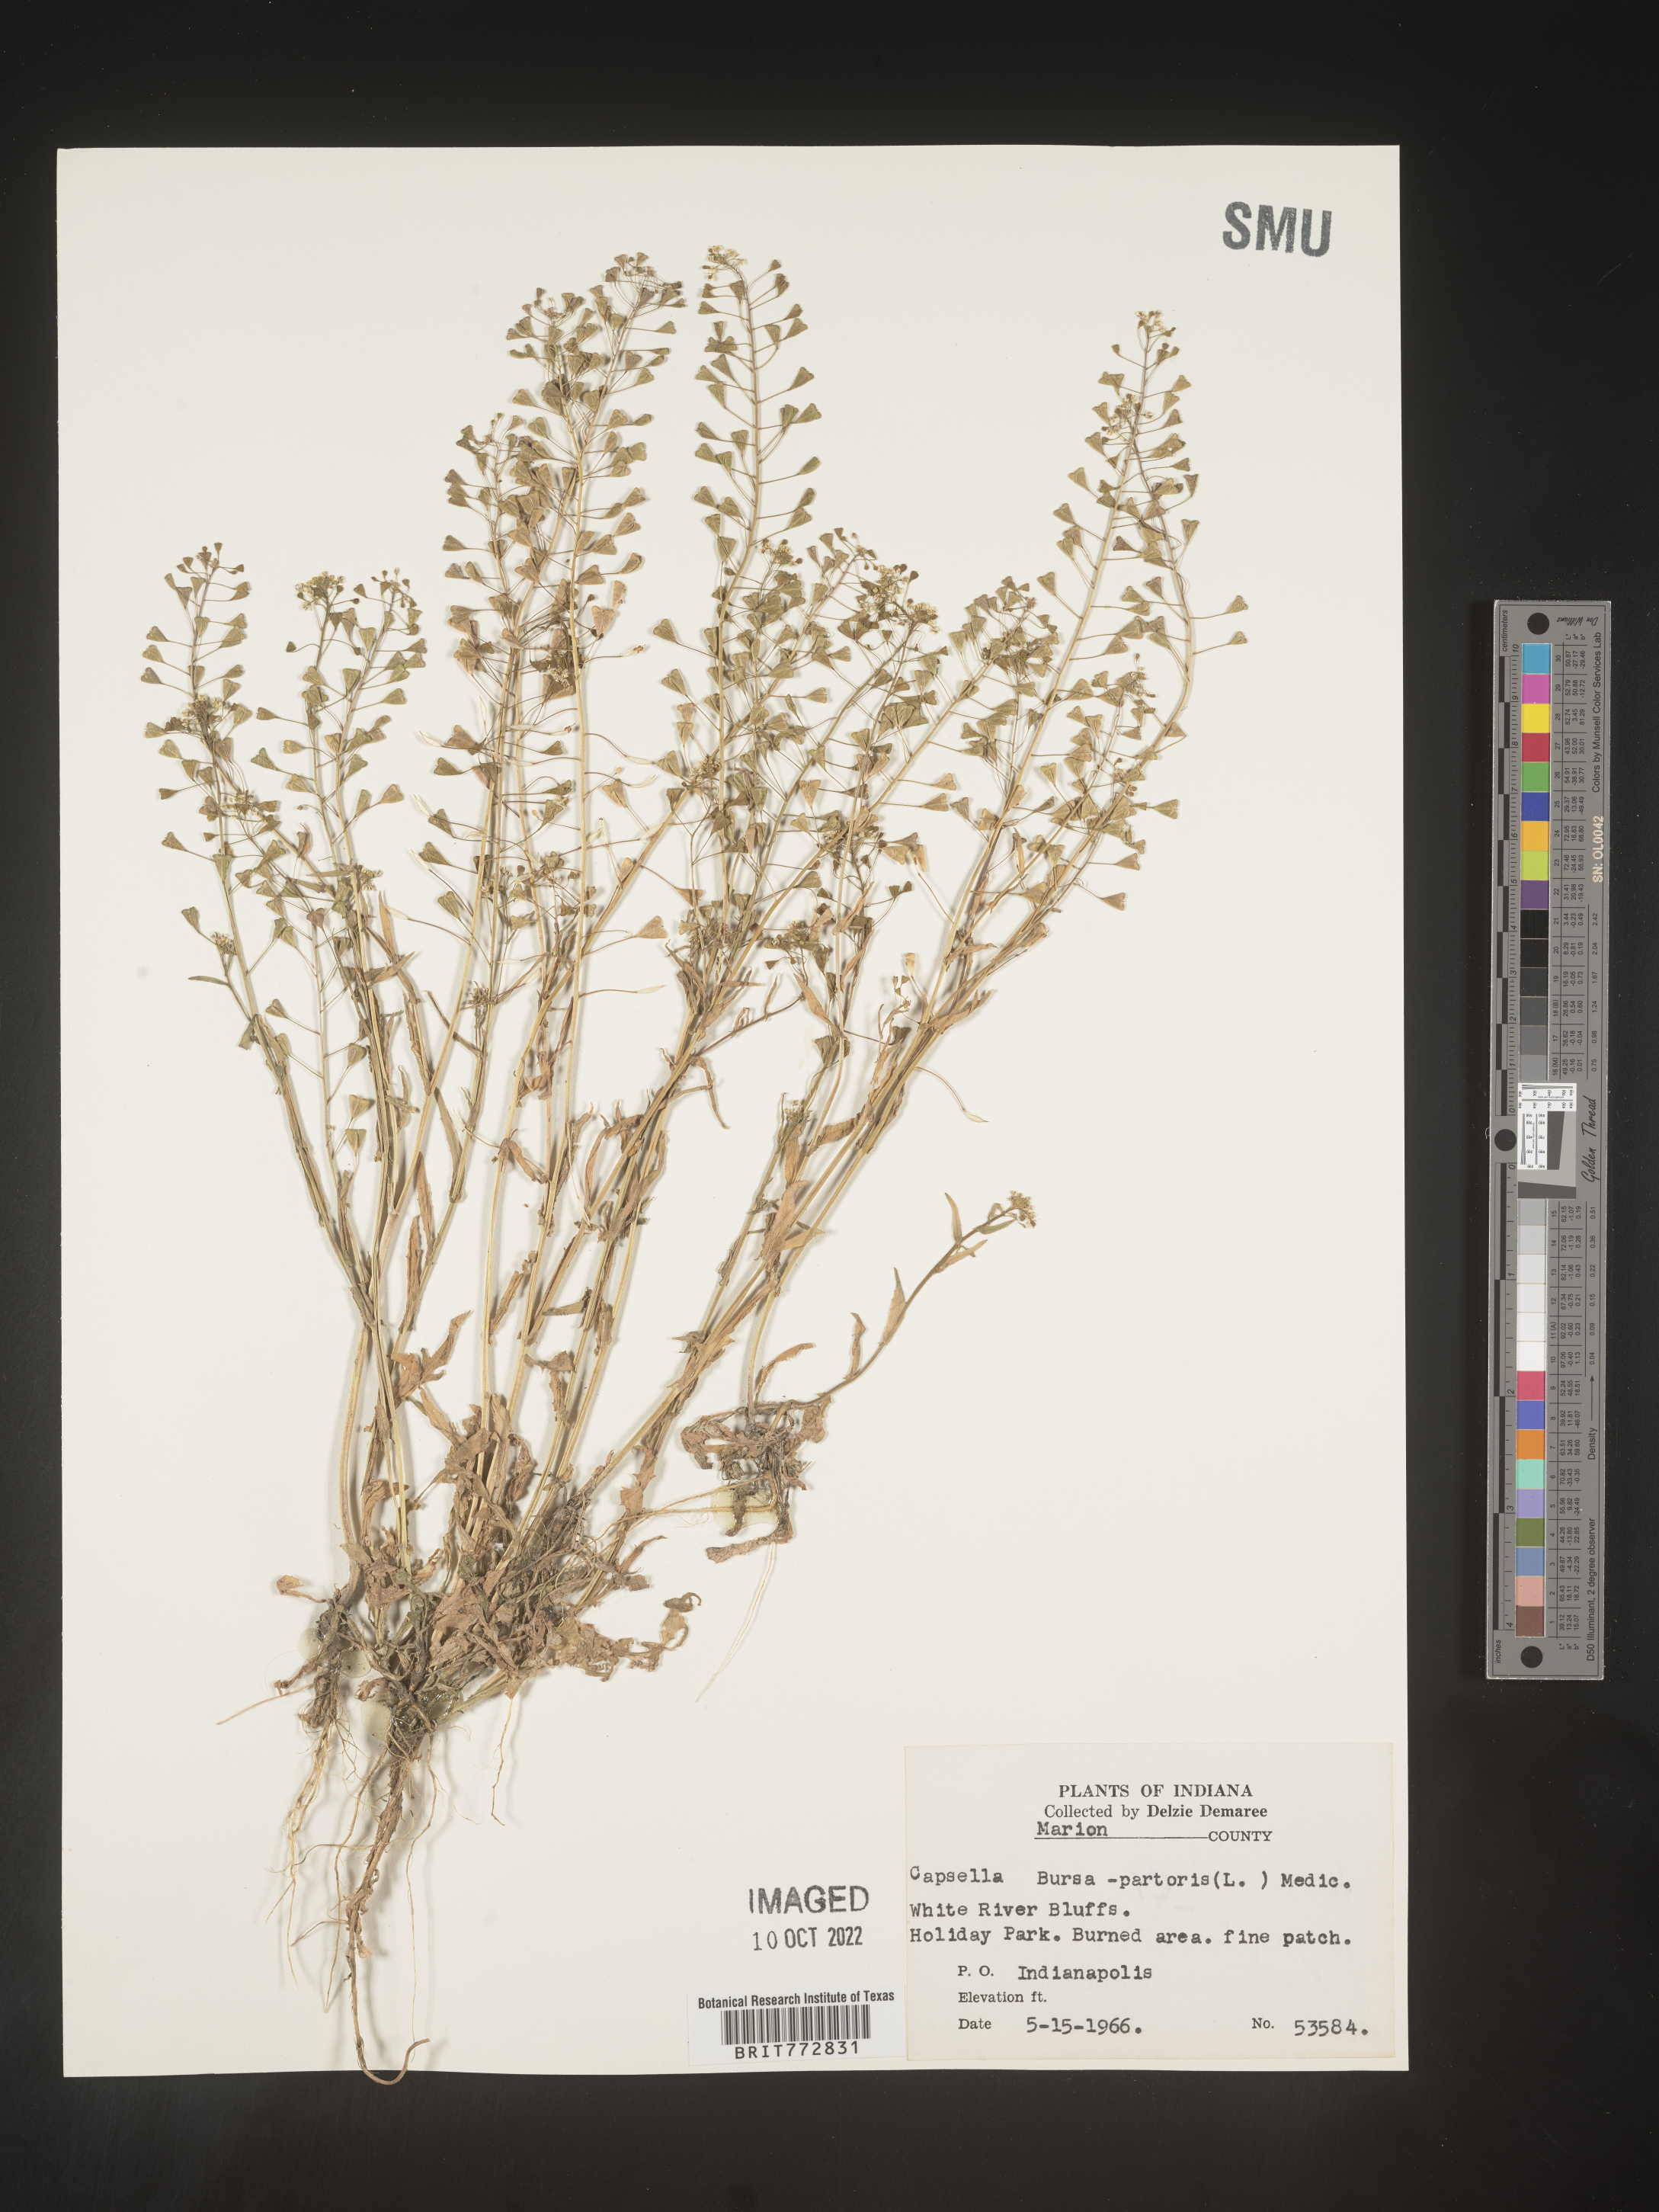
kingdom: Plantae
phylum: Tracheophyta
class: Magnoliopsida
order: Brassicales
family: Brassicaceae
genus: Capsella
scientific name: Capsella bursa-pastoris
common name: Shepherd's purse
